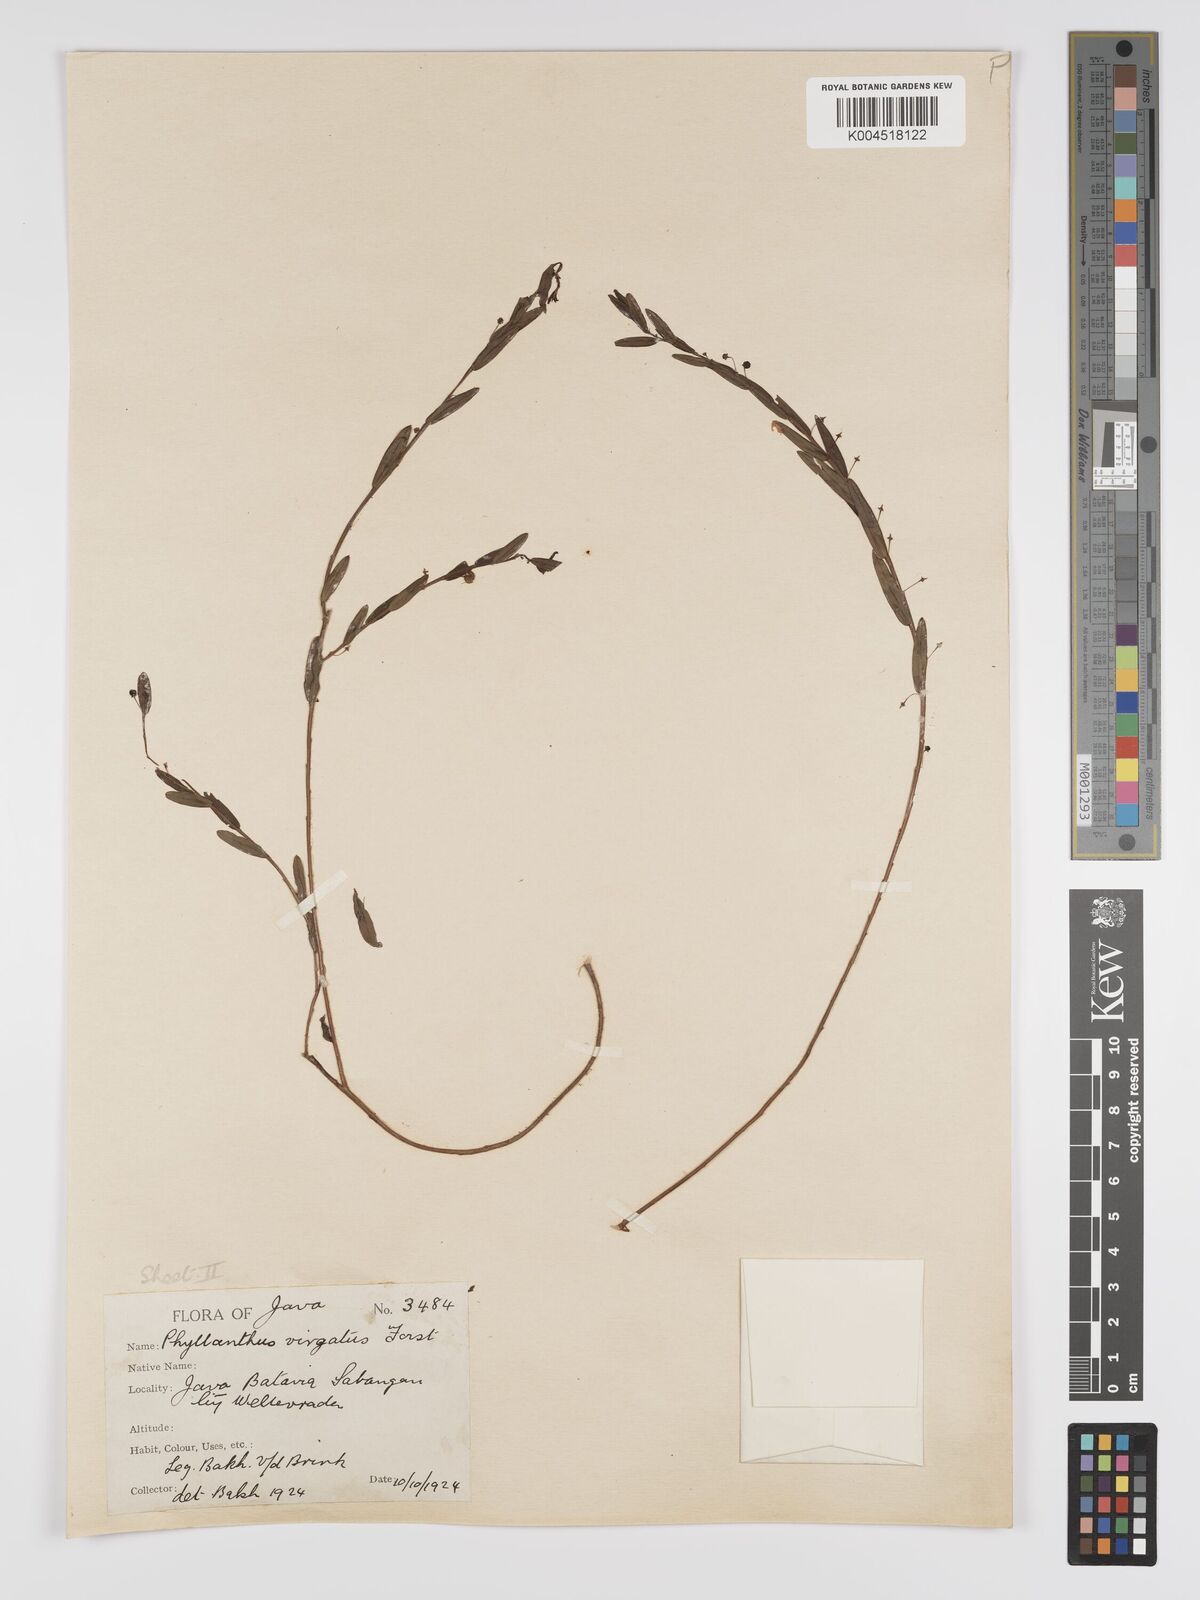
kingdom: Plantae
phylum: Tracheophyta
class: Magnoliopsida
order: Malpighiales
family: Phyllanthaceae
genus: Phyllanthus
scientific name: Phyllanthus virgatus
